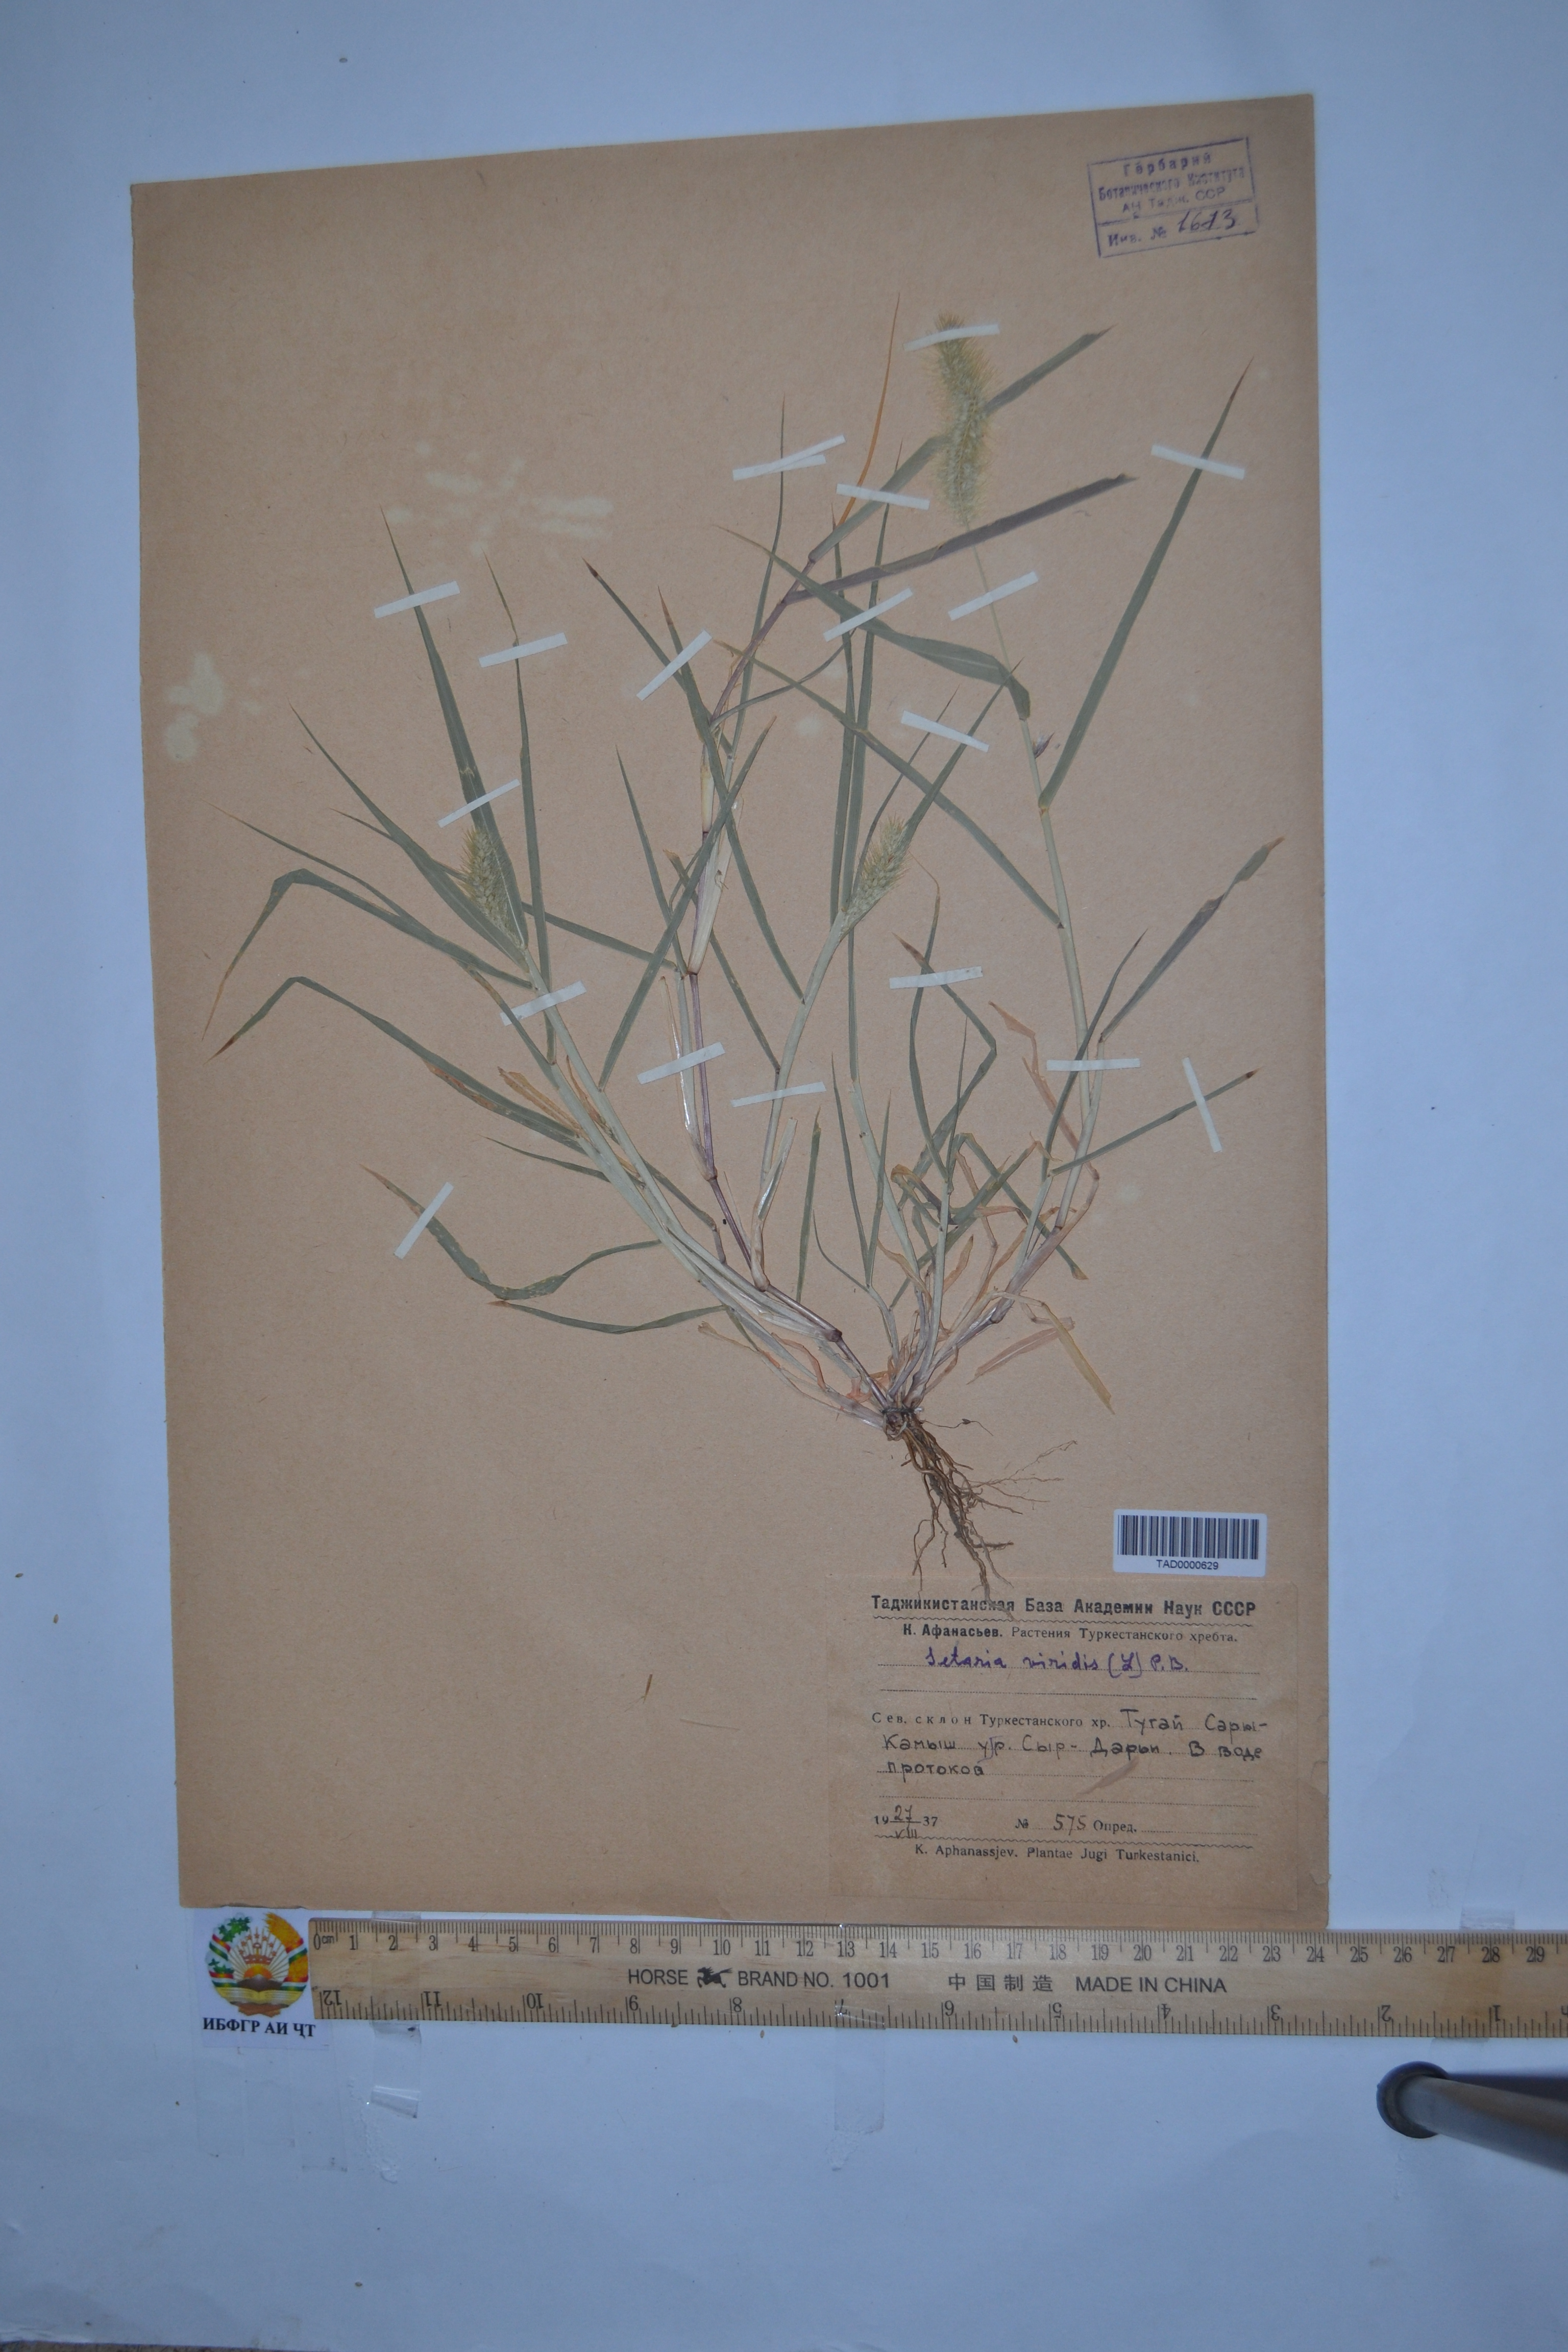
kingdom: Plantae
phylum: Tracheophyta
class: Liliopsida
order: Poales
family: Poaceae
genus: Setaria
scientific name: Setaria viridis
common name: Green bristlegrass
